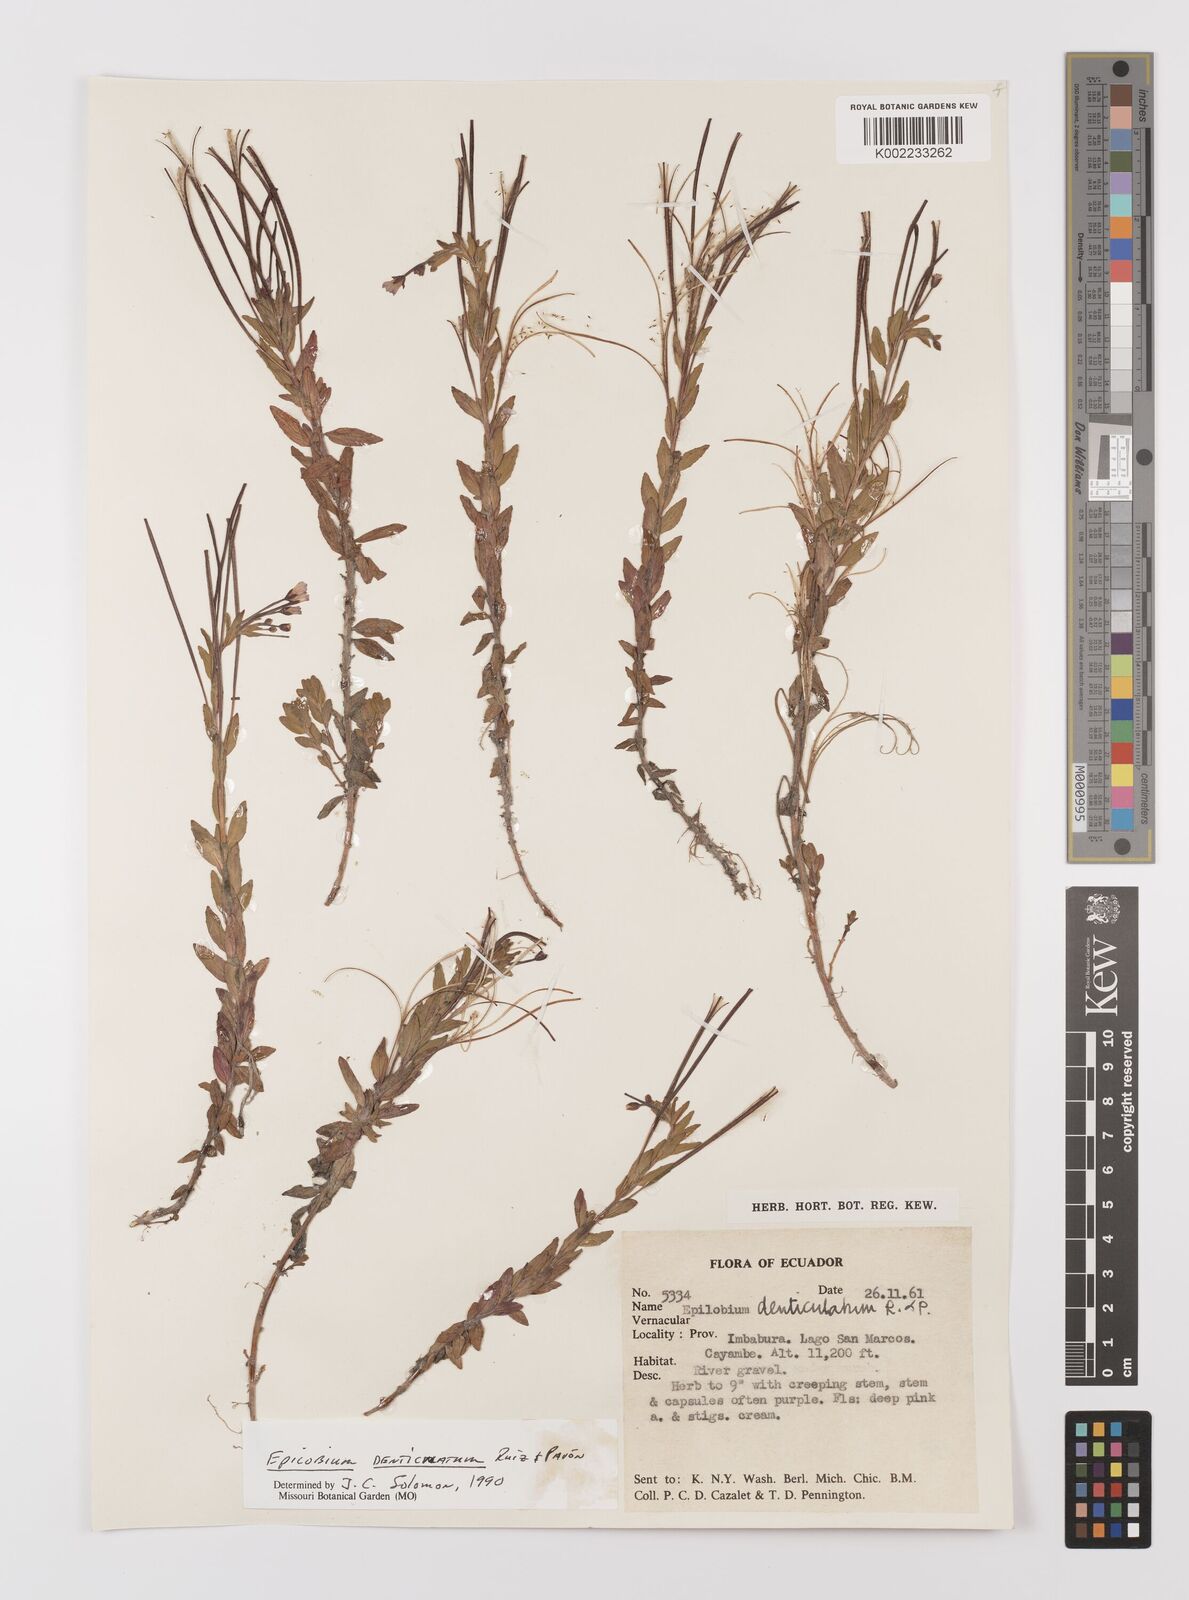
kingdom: Plantae
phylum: Tracheophyta
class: Magnoliopsida
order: Myrtales
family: Onagraceae
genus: Epilobium
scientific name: Epilobium denticulatum
